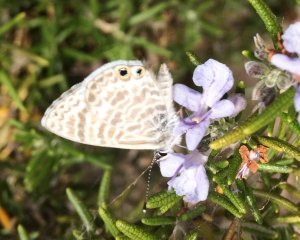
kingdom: Animalia
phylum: Arthropoda
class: Insecta
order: Lepidoptera
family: Lycaenidae
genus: Leptotes
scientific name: Leptotes marina
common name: Marine Blue
